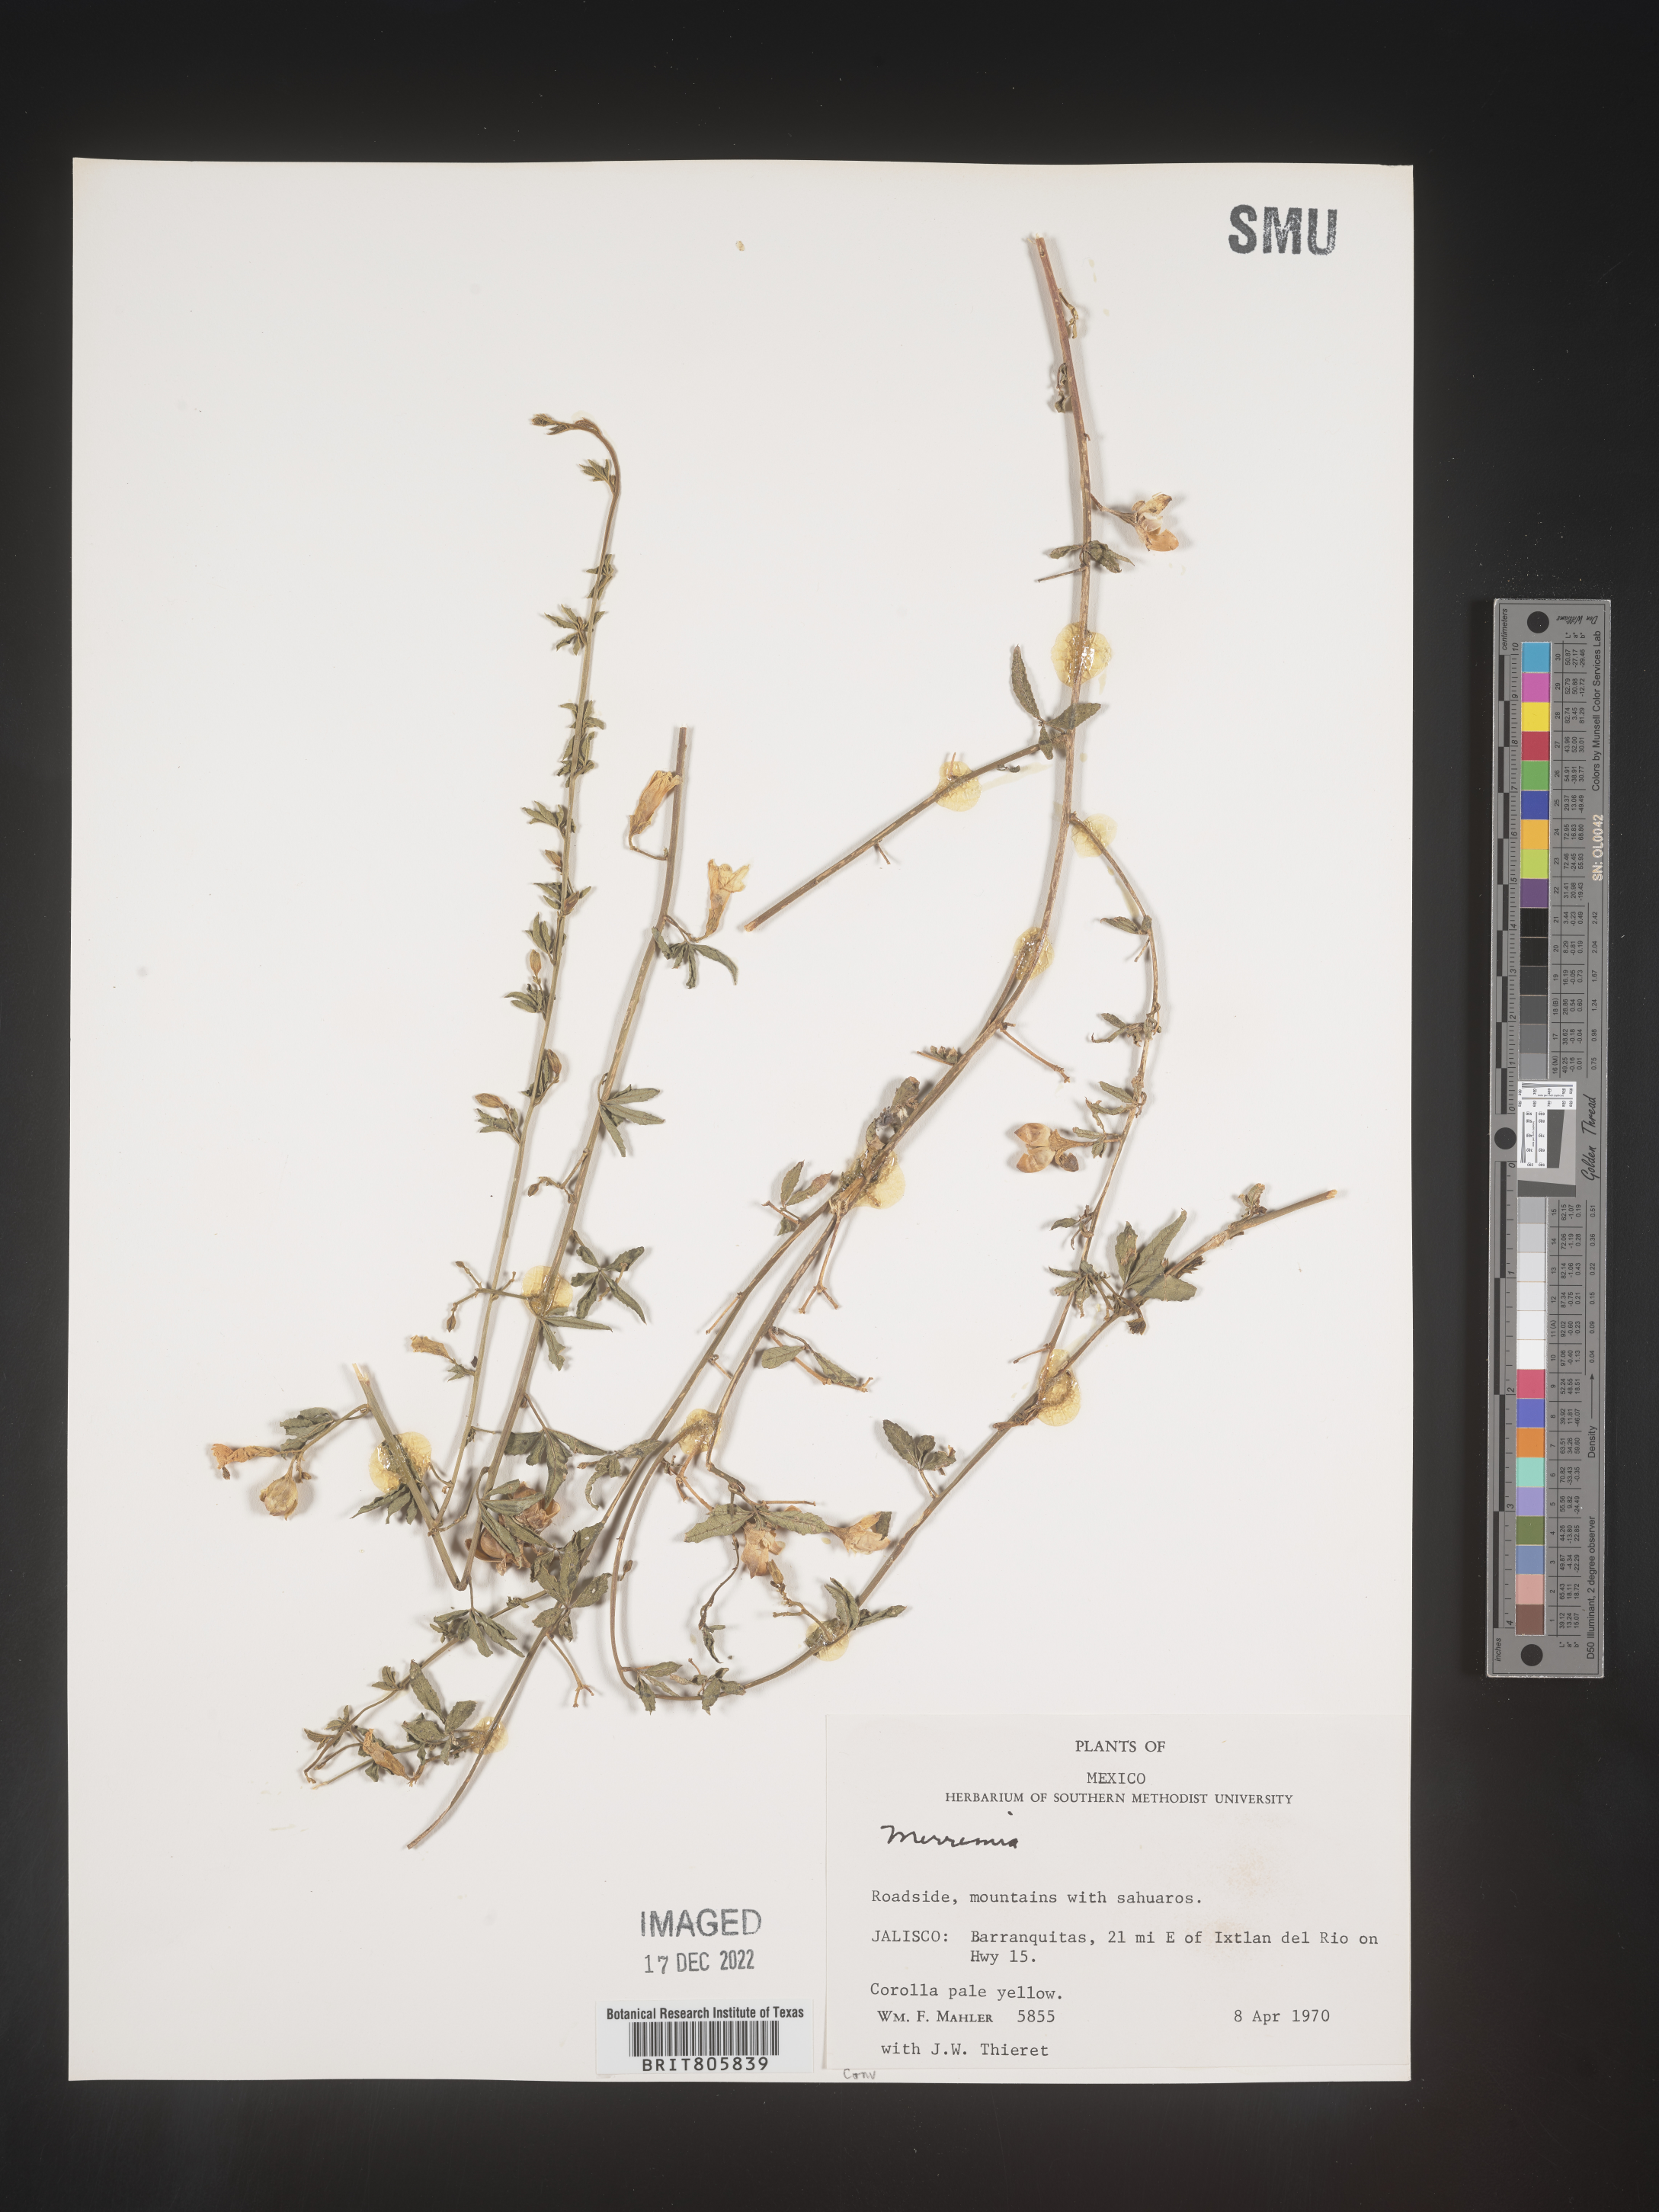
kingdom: Plantae
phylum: Tracheophyta
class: Magnoliopsida
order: Solanales
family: Convolvulaceae
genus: Merremia
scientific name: Merremia
